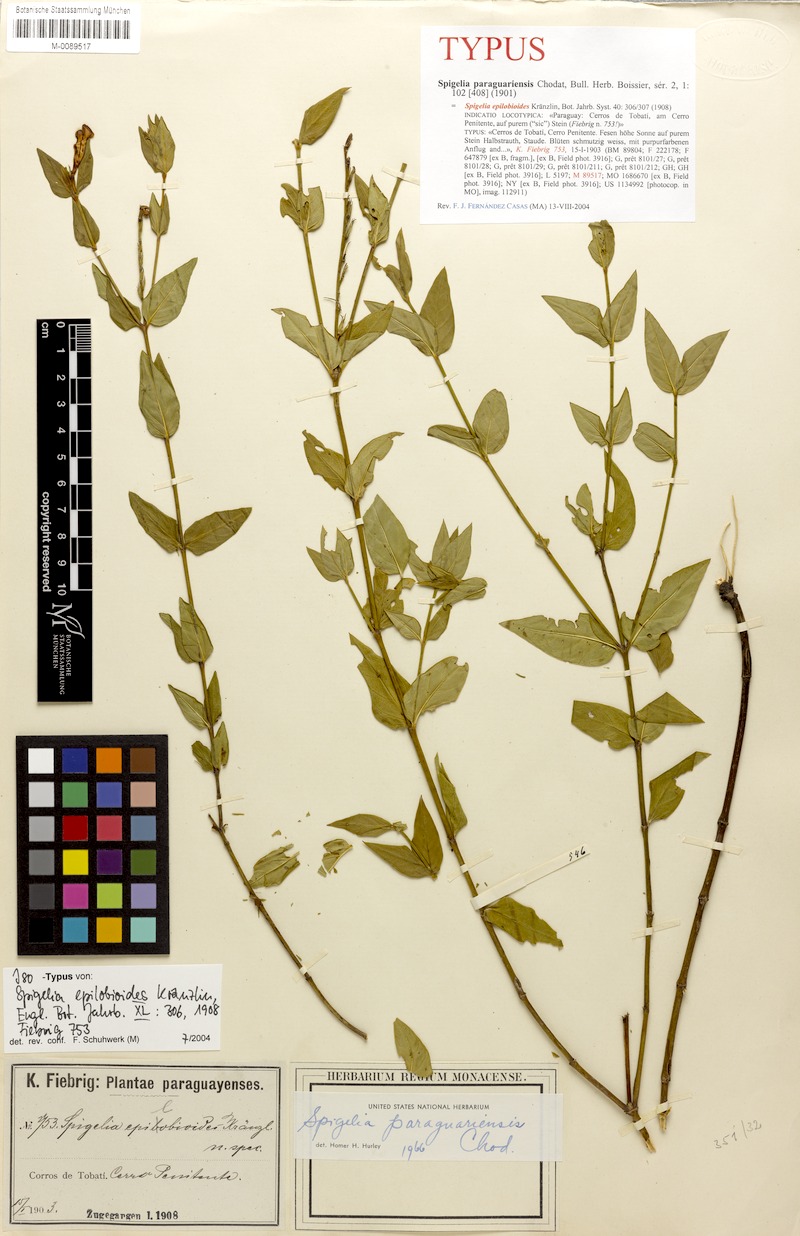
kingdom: Plantae
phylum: Tracheophyta
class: Magnoliopsida
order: Gentianales
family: Loganiaceae
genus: Spigelia
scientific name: Spigelia paraguayensis
